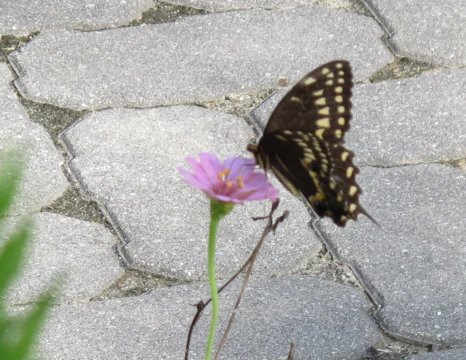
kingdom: Animalia
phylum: Arthropoda
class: Insecta
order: Lepidoptera
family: Papilionidae
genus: Pterourus
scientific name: Pterourus palamedes
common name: Palamedes Swallowtail
